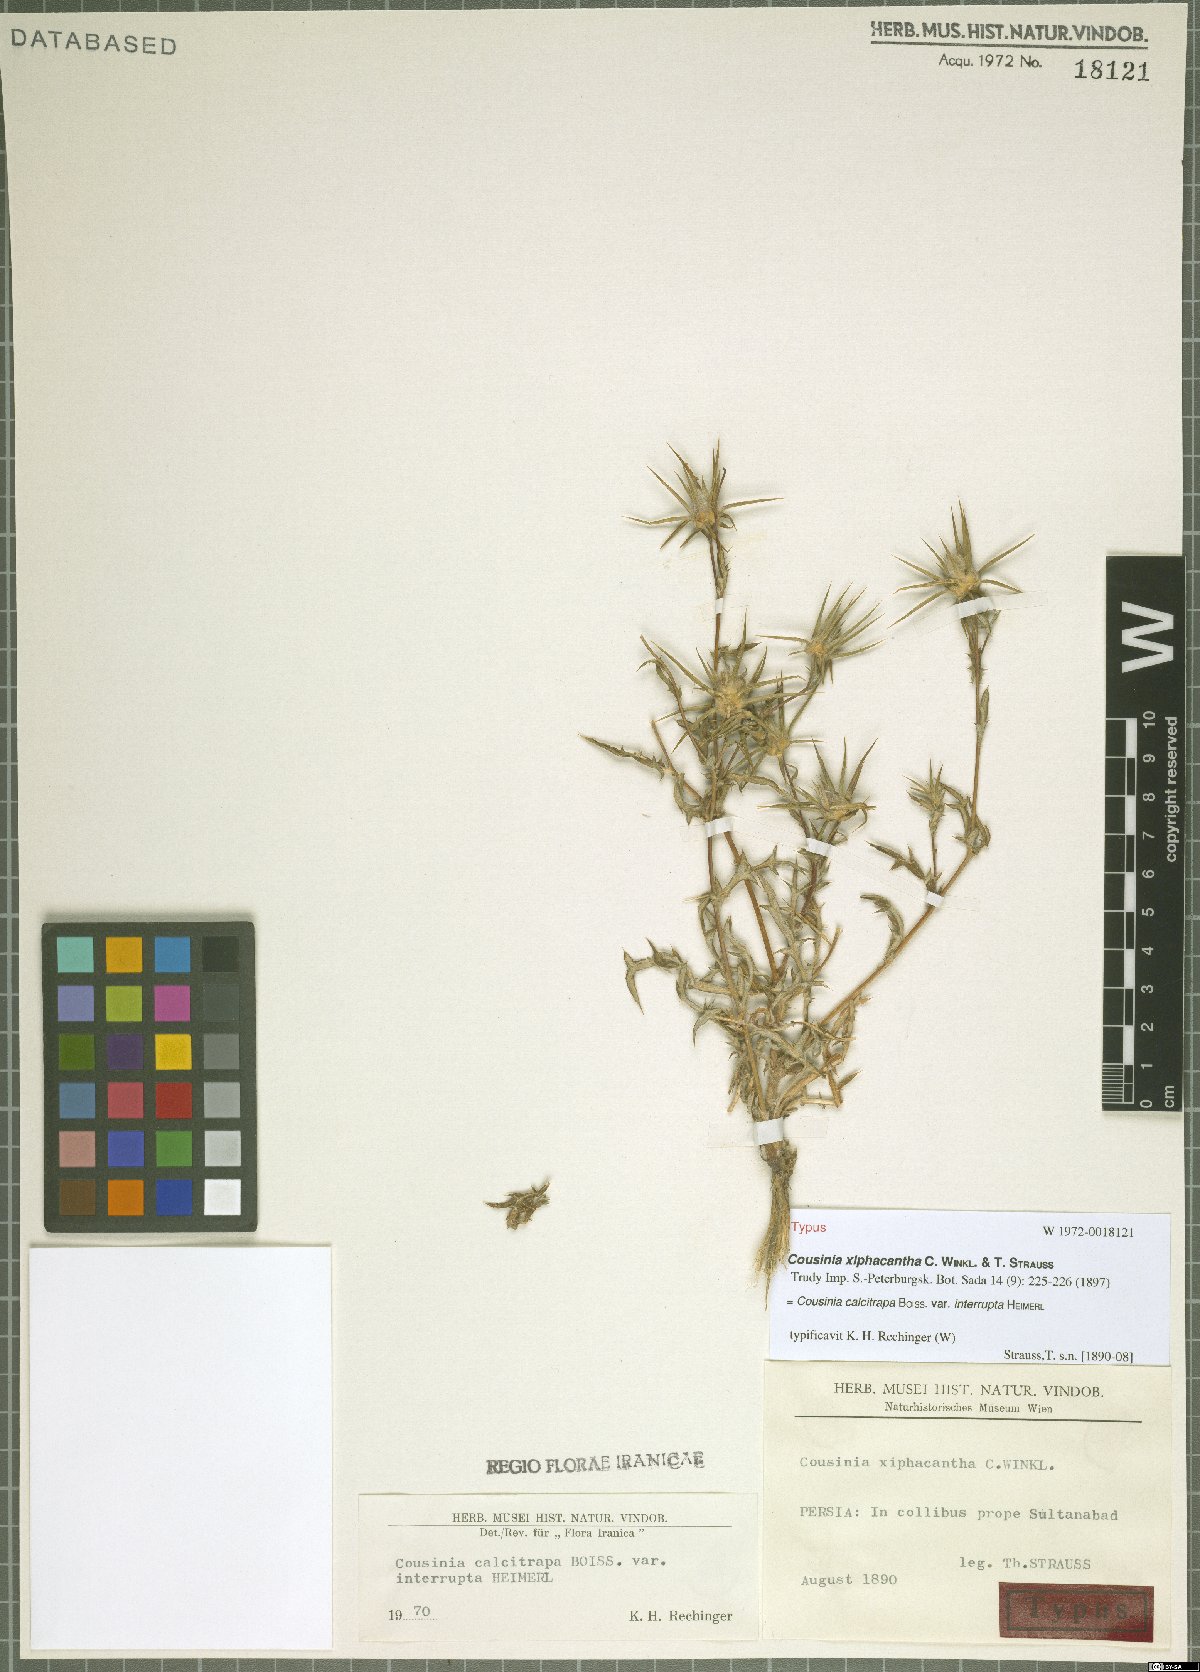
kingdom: Plantae
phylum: Tracheophyta
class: Magnoliopsida
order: Asterales
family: Asteraceae
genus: Cousinia
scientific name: Cousinia calcitrapa
